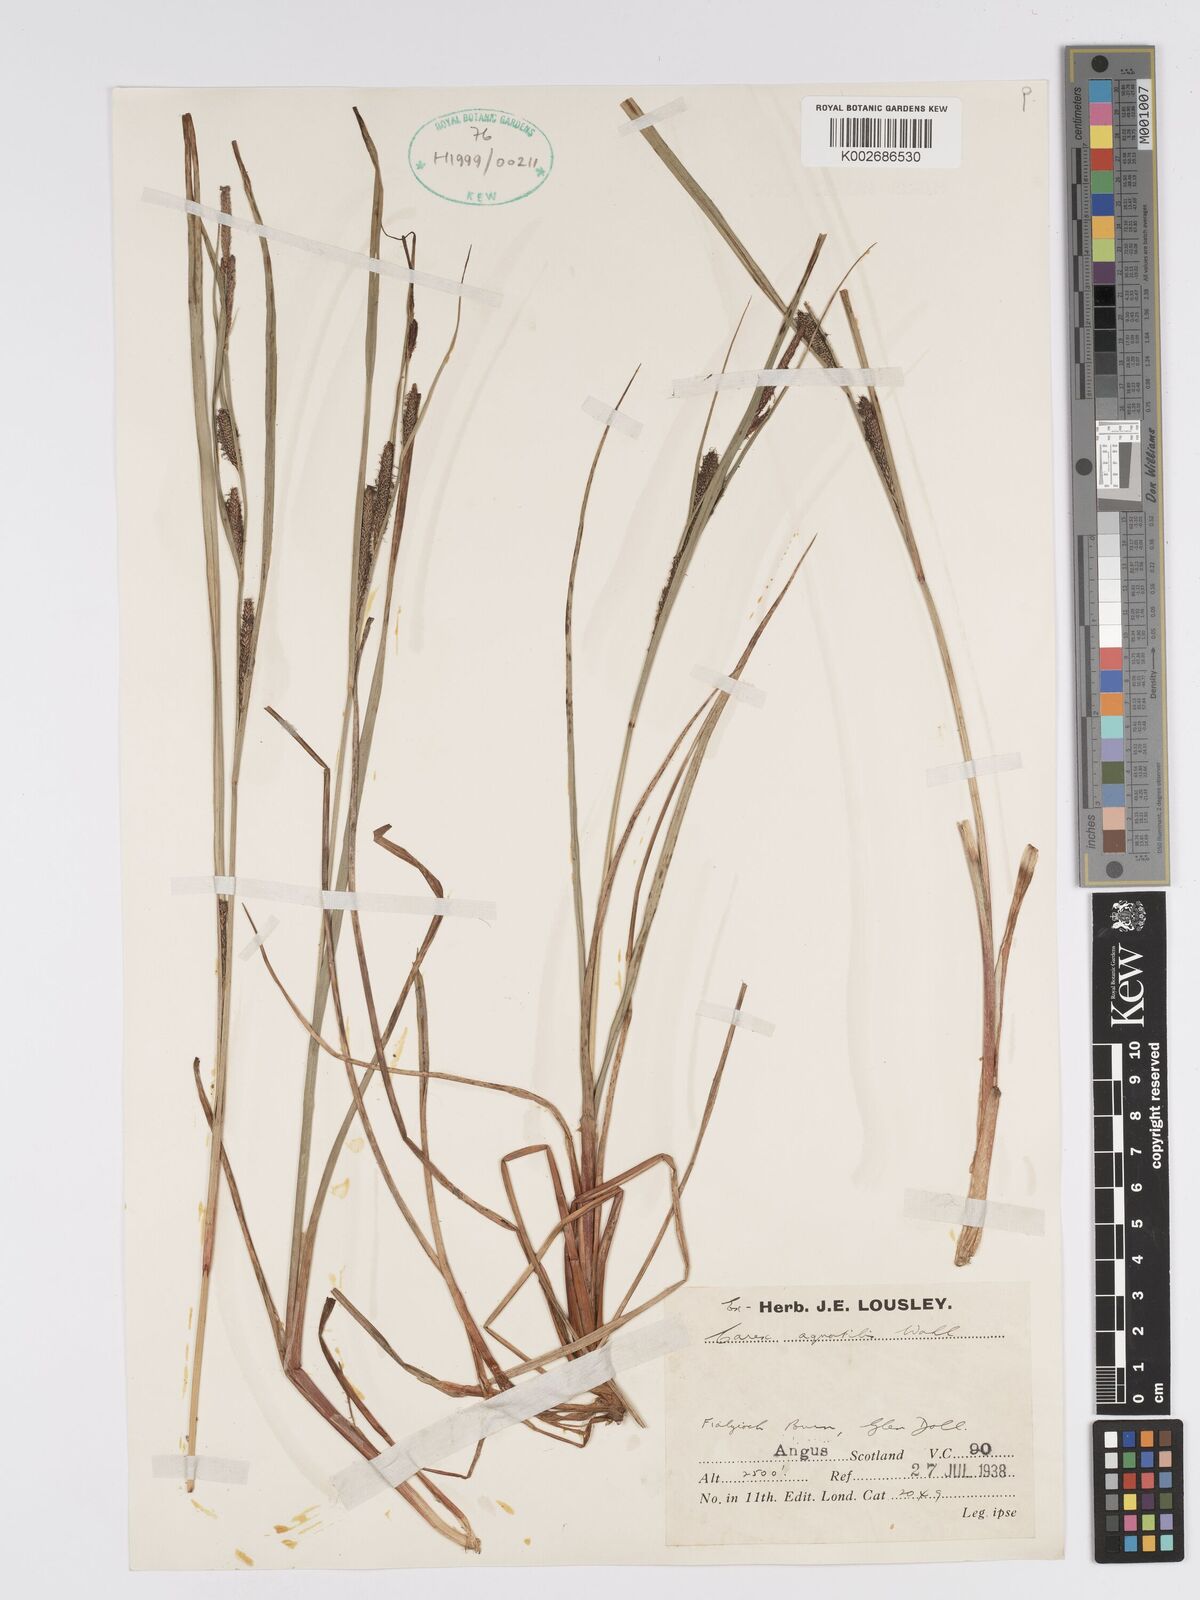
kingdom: Plantae
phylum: Tracheophyta
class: Liliopsida
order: Poales
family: Cyperaceae
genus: Carex
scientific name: Carex aquatilis
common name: Water sedge
